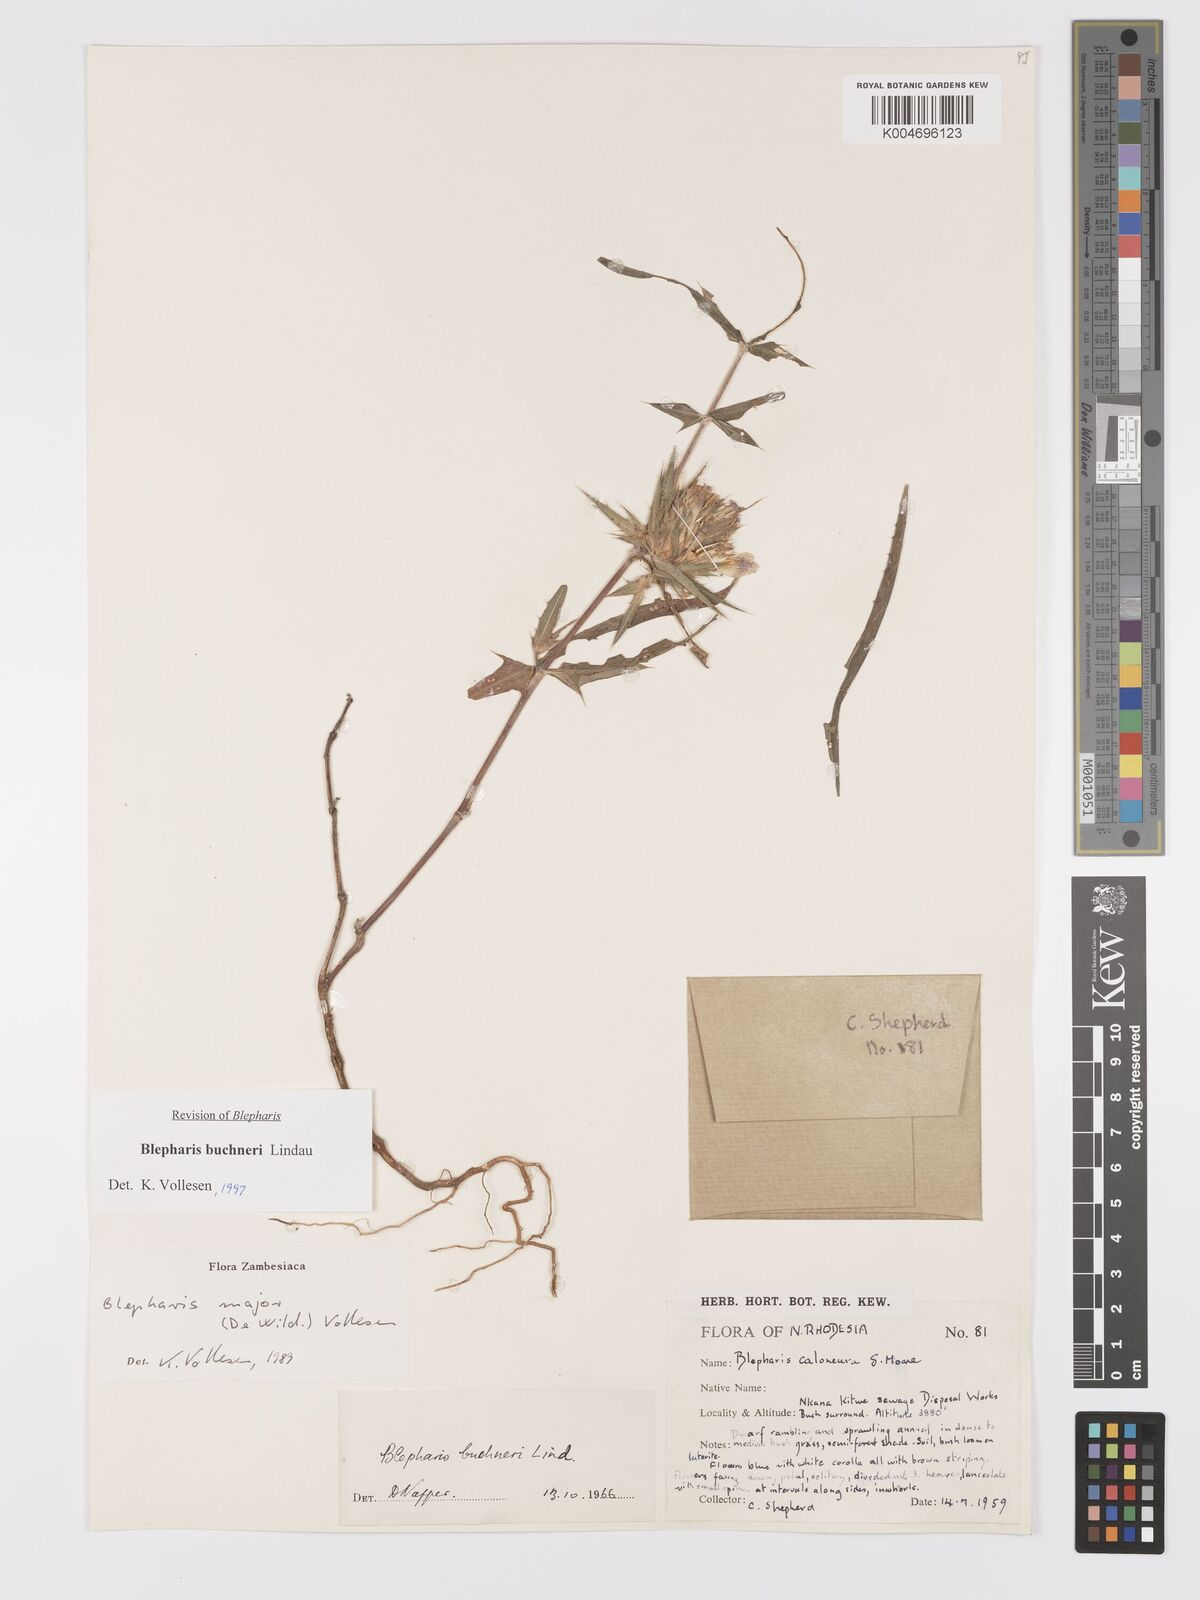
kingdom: Plantae
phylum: Tracheophyta
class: Magnoliopsida
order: Lamiales
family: Acanthaceae
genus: Blepharis
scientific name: Blepharis buchneri
